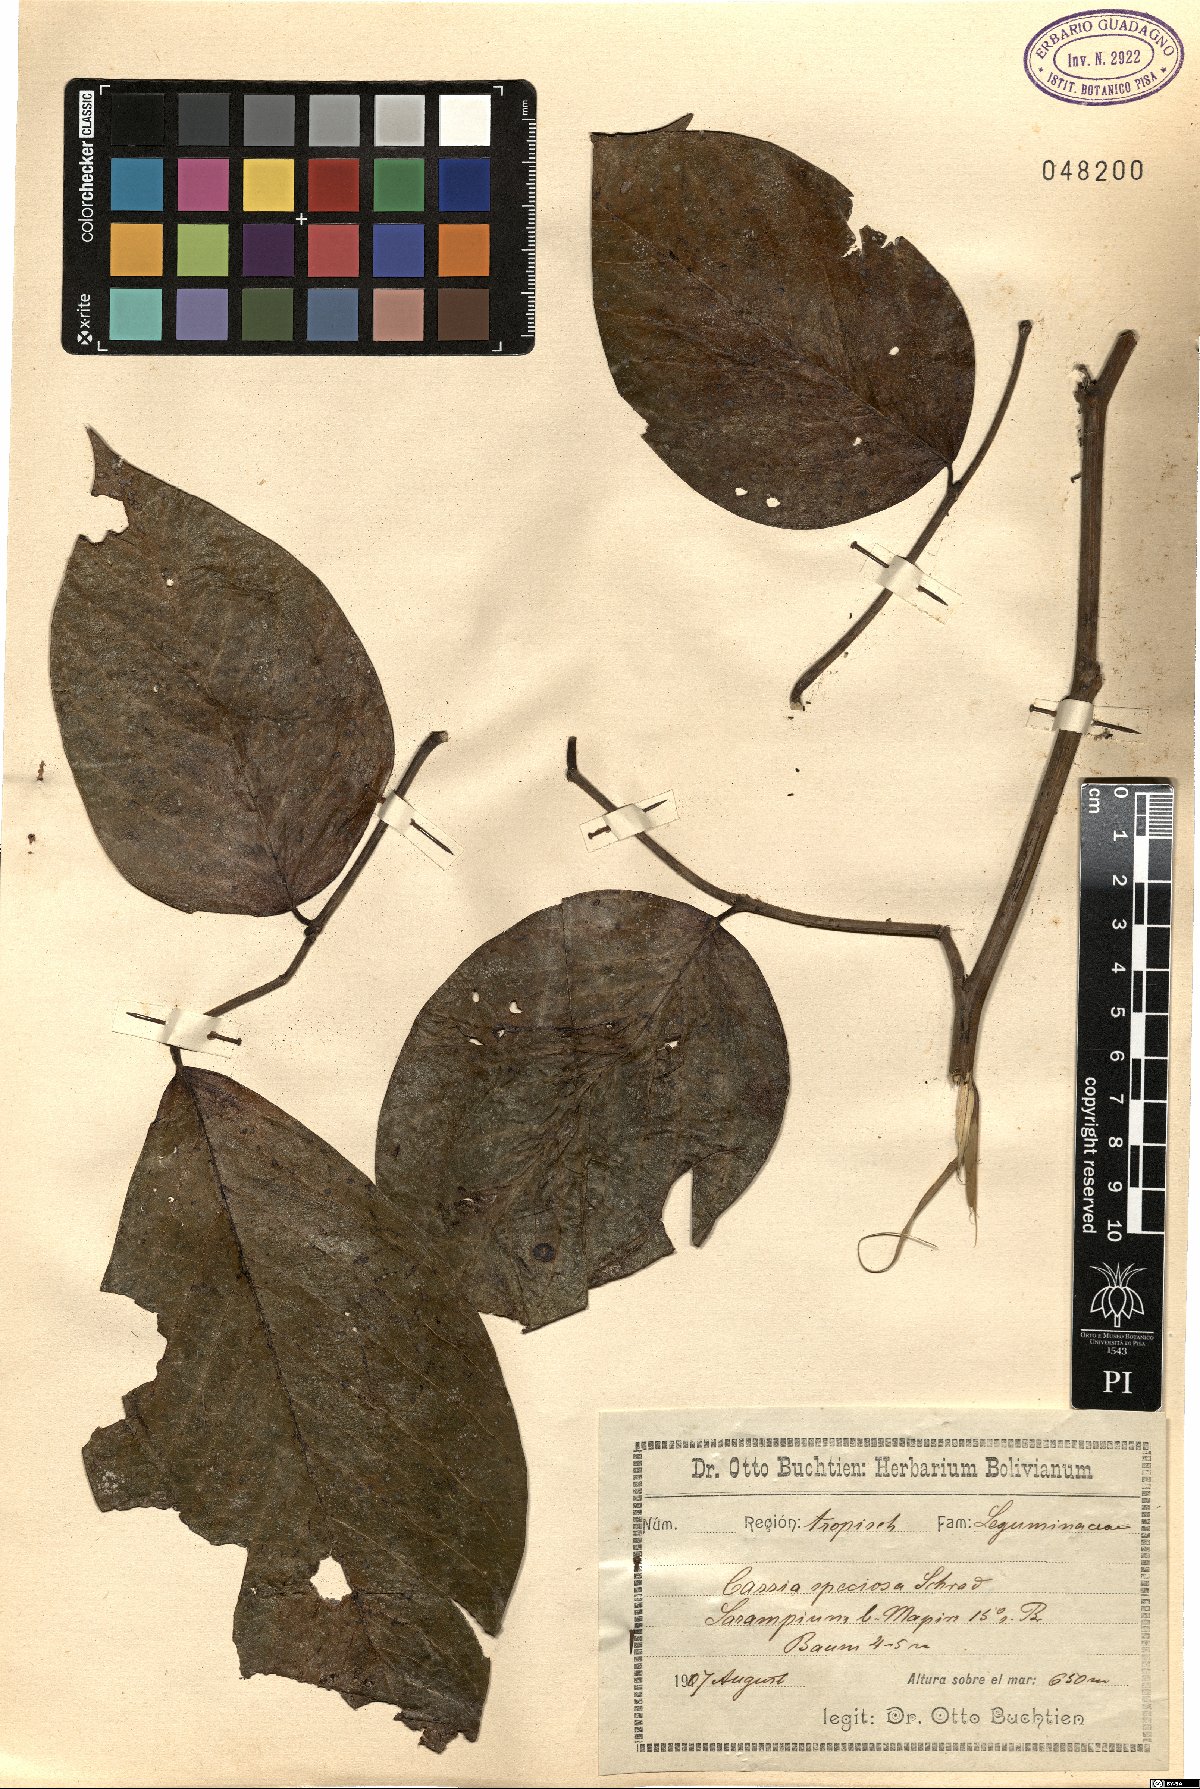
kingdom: Plantae
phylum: Tracheophyta
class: Magnoliopsida
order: Fabales
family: Fabaceae
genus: Senna
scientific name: Senna macranthera
